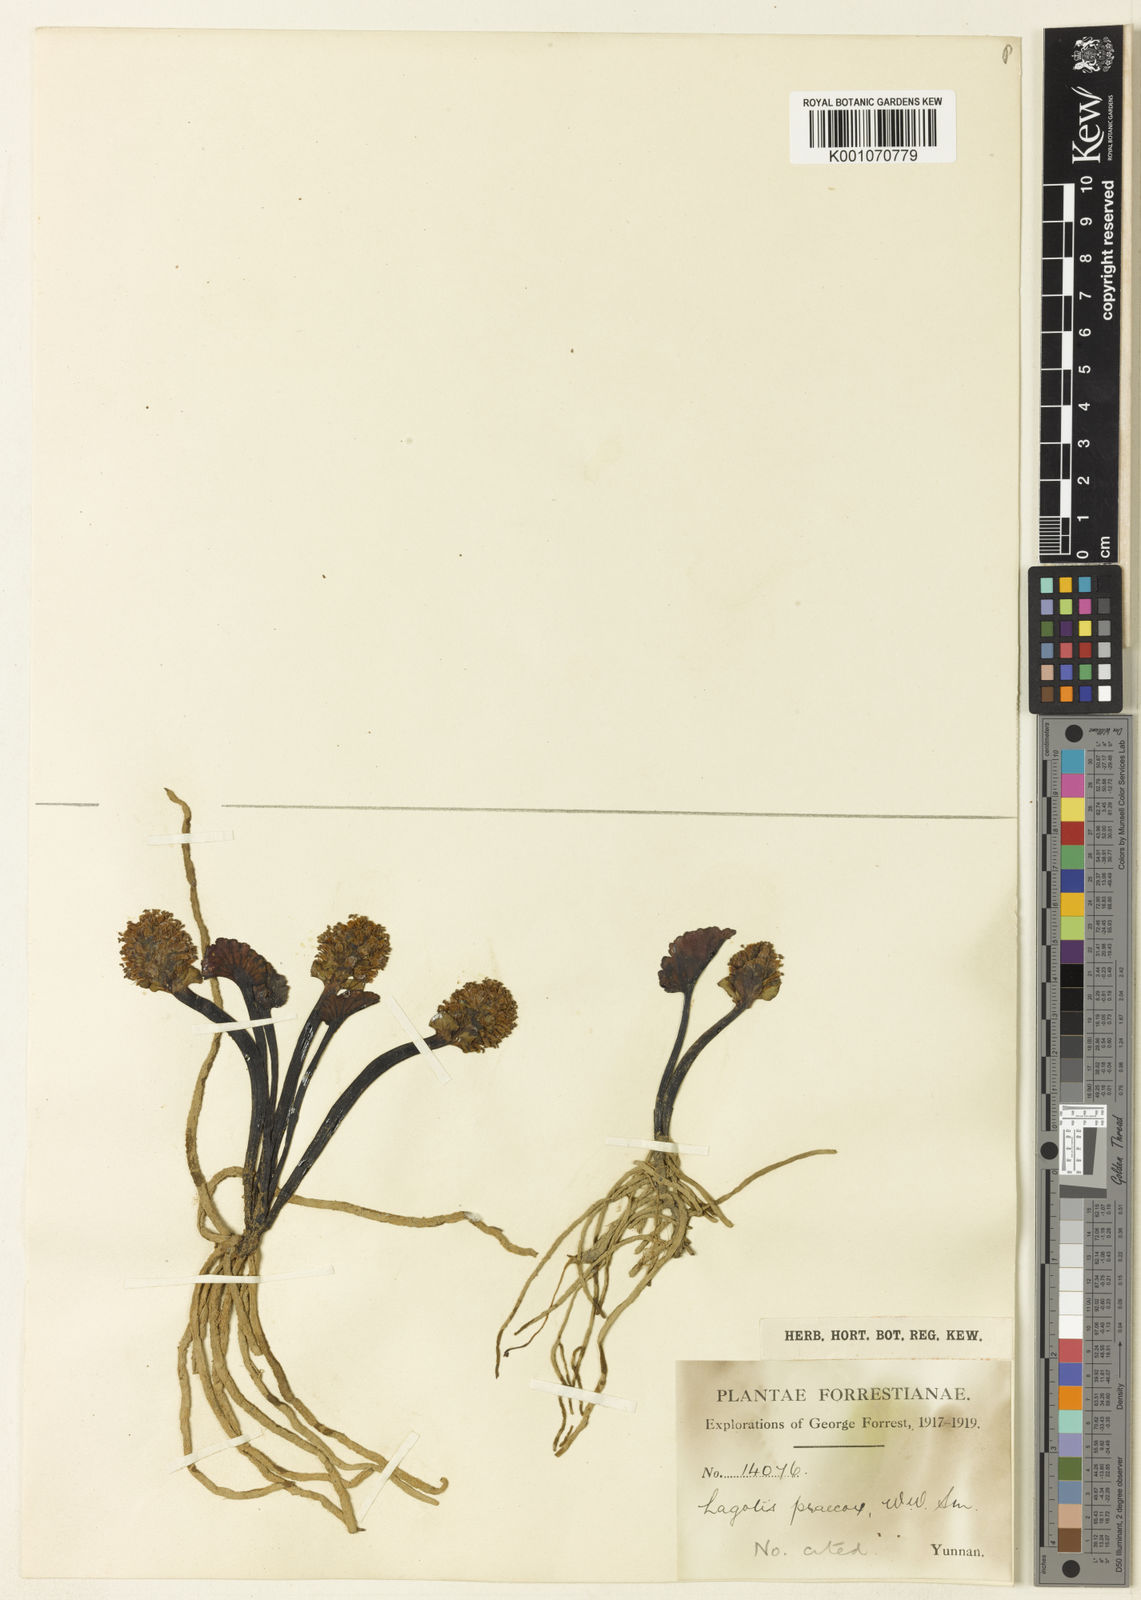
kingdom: Plantae
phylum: Tracheophyta
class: Magnoliopsida
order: Lamiales
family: Plantaginaceae
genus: Lagotis
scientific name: Lagotis praecox
